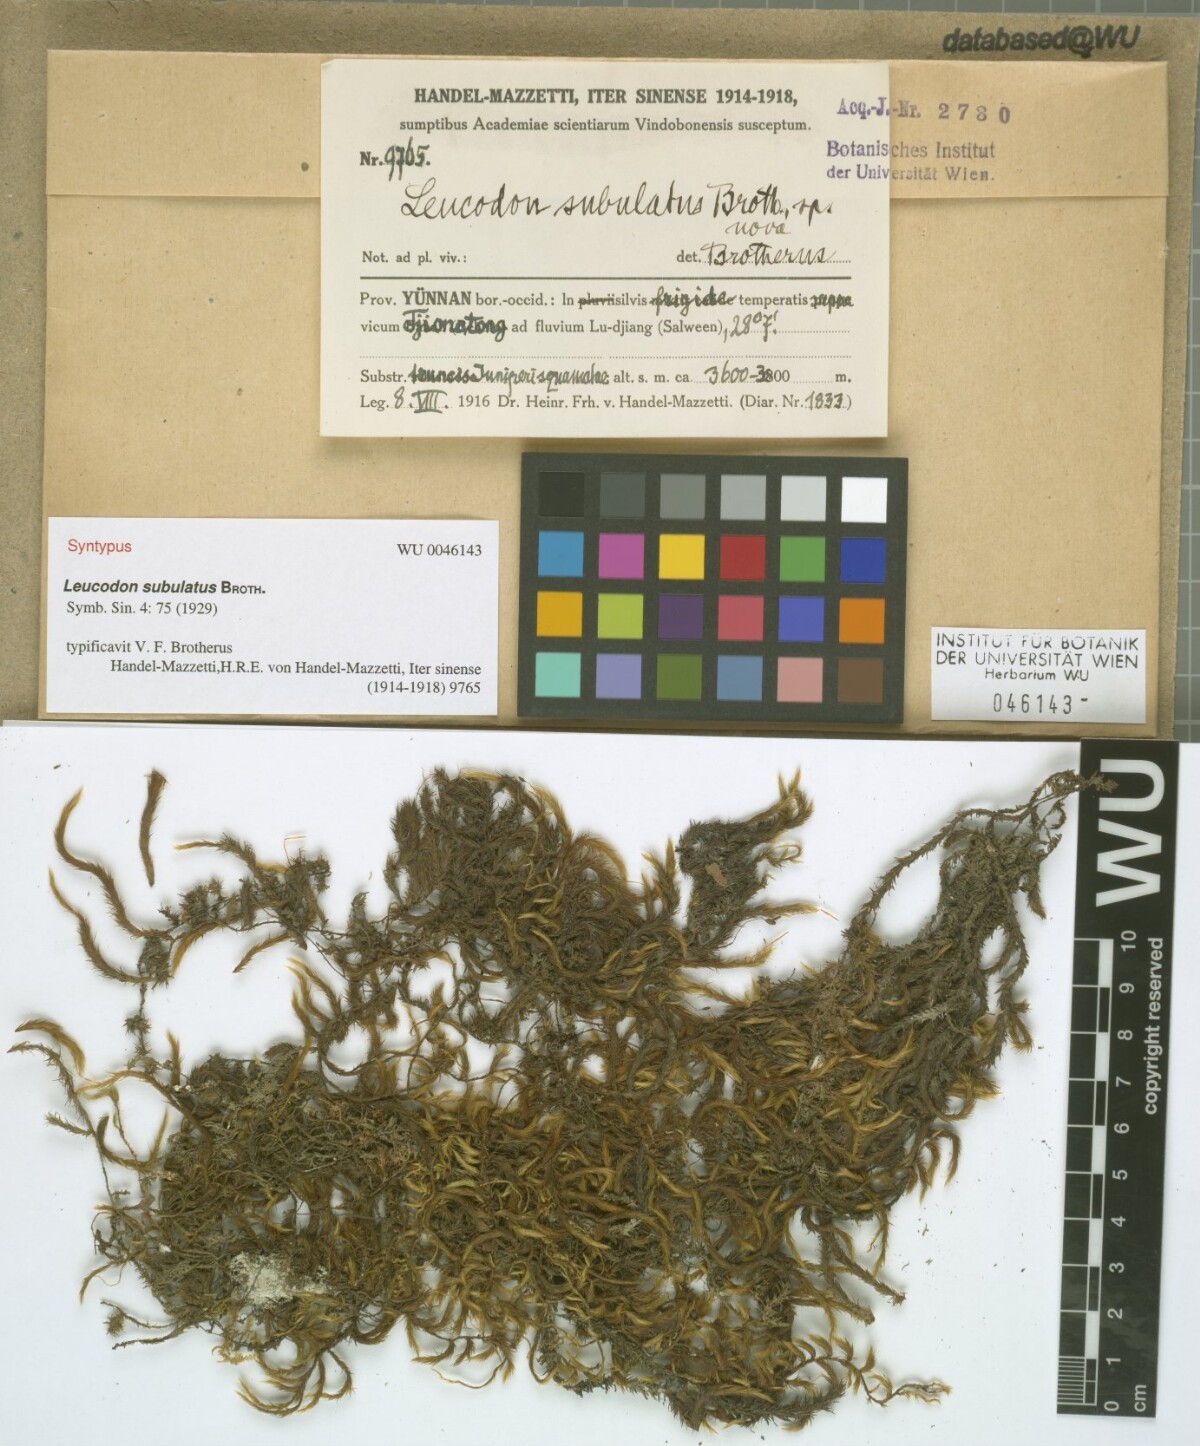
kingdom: Plantae
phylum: Bryophyta
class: Bryopsida
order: Hypnales
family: Leucodontaceae
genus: Leucodon
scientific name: Leucodon subulatus
